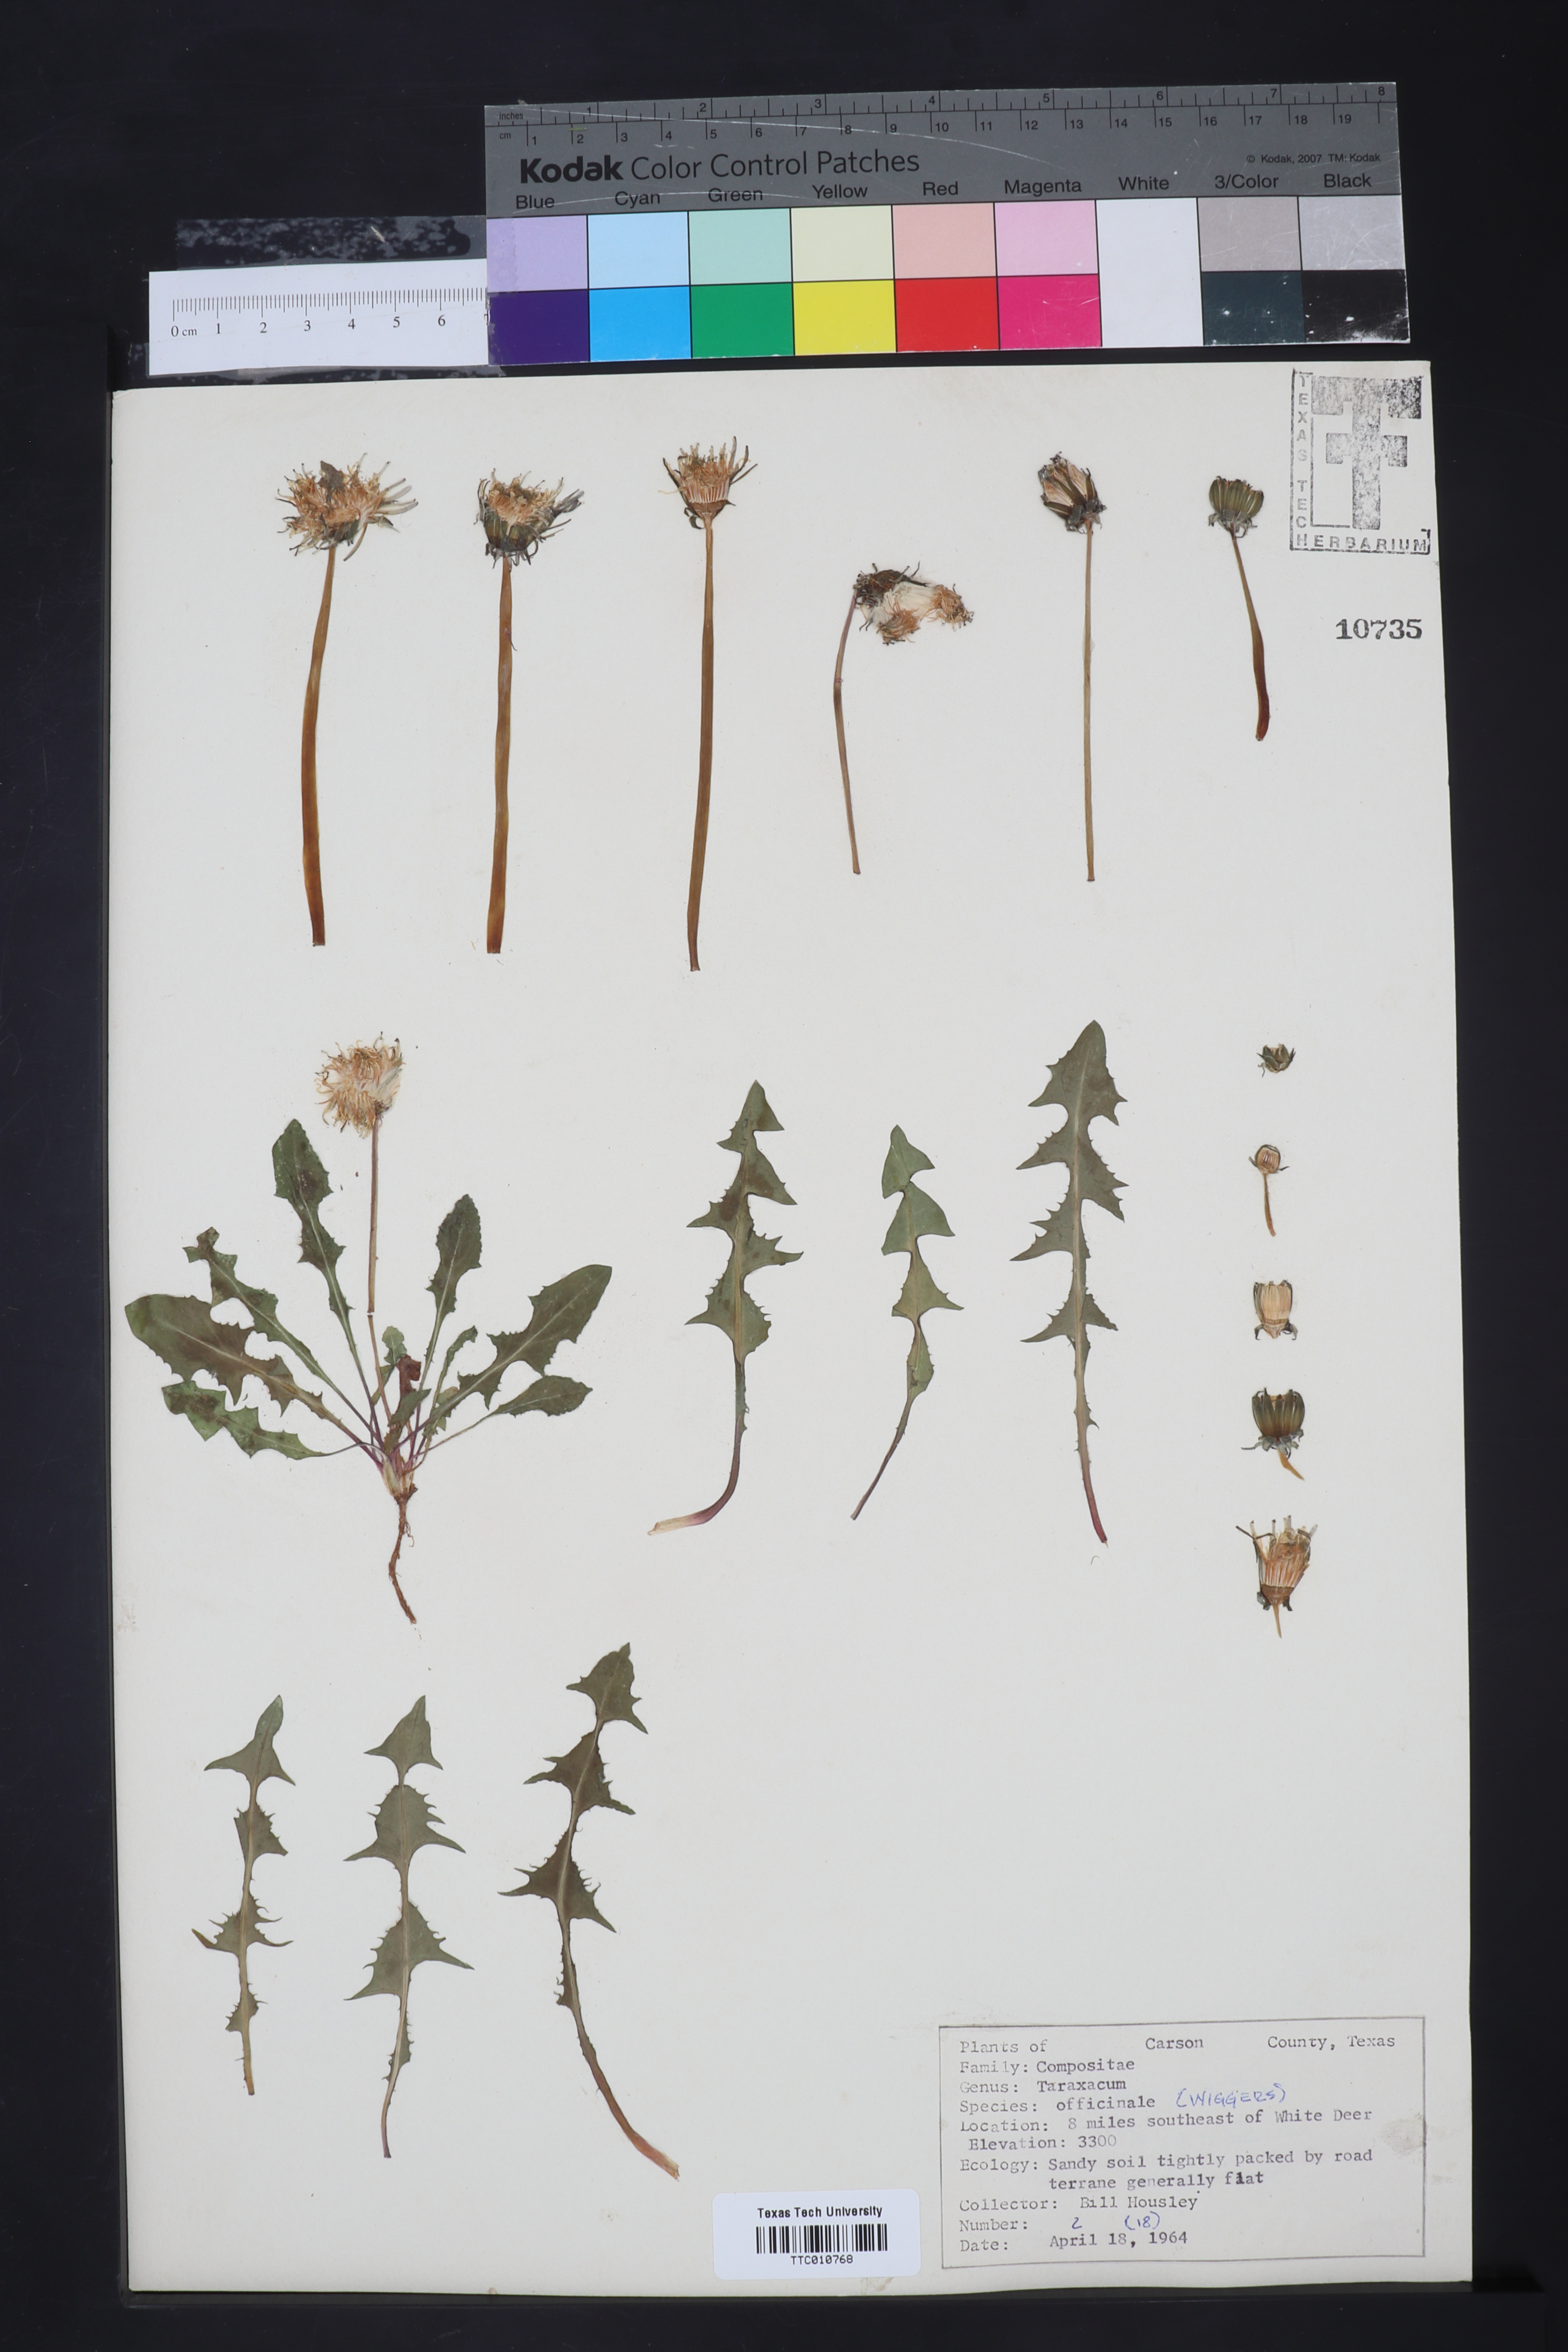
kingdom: Plantae
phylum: Tracheophyta
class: Magnoliopsida
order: Asterales
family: Asteraceae
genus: Taraxacum
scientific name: Taraxacum officinale
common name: Common dandelion
